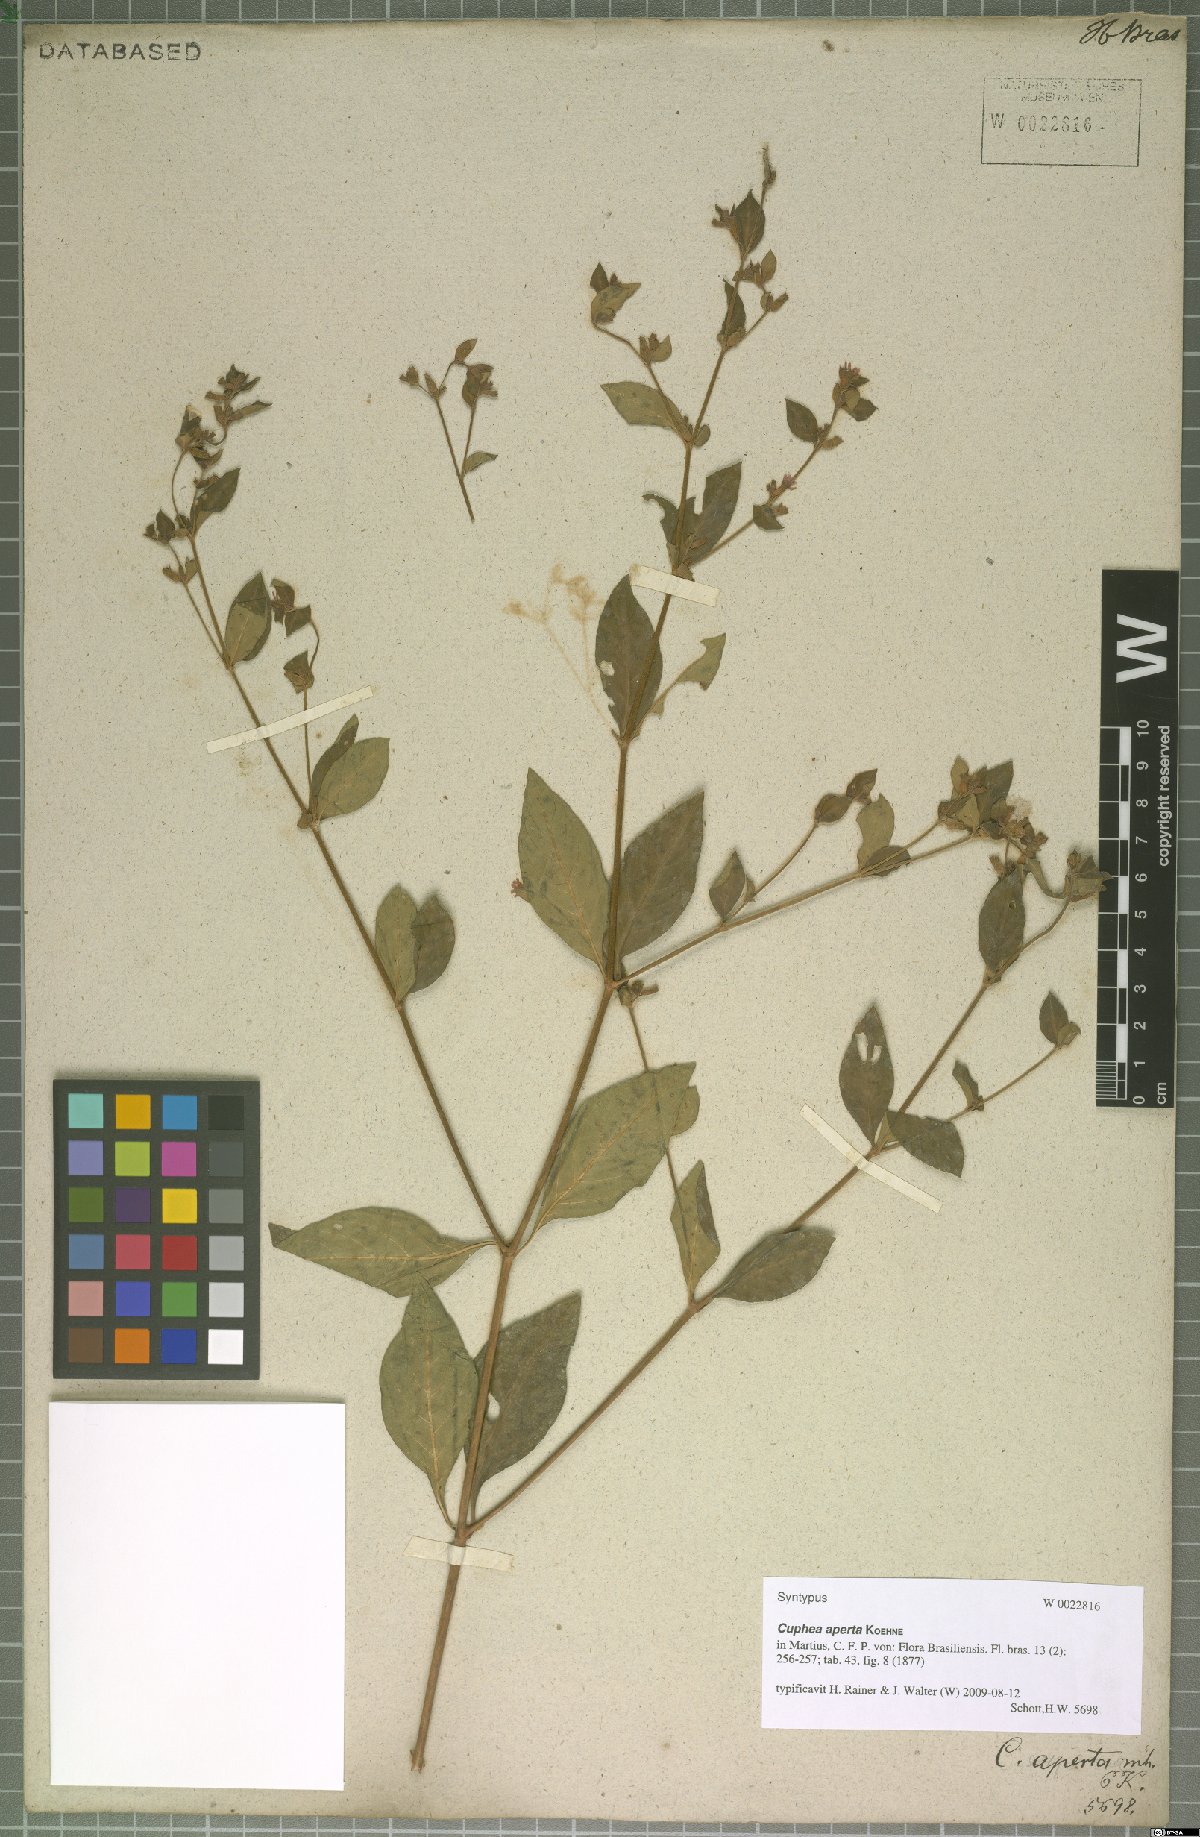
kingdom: Plantae
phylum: Tracheophyta
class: Magnoliopsida
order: Myrtales
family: Lythraceae
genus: Cuphea
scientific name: Cuphea aperta
